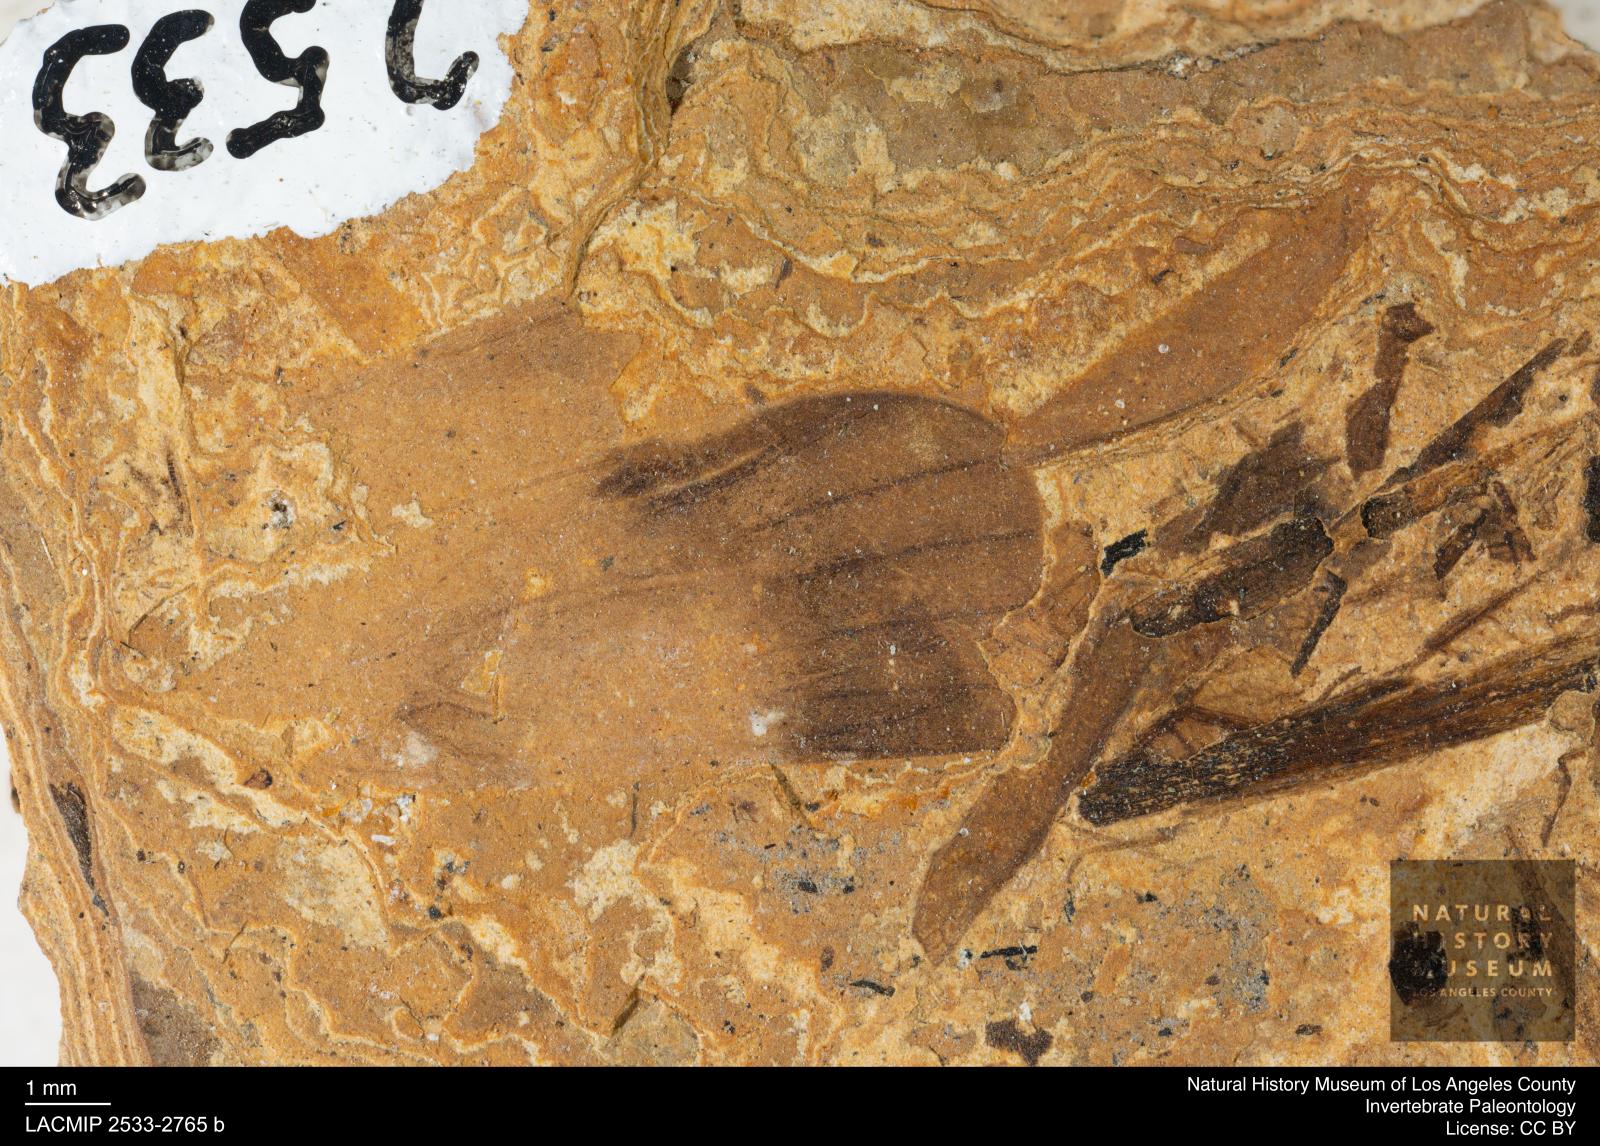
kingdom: Animalia
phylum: Arthropoda
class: Insecta
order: Lepidoptera
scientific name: Lepidoptera
